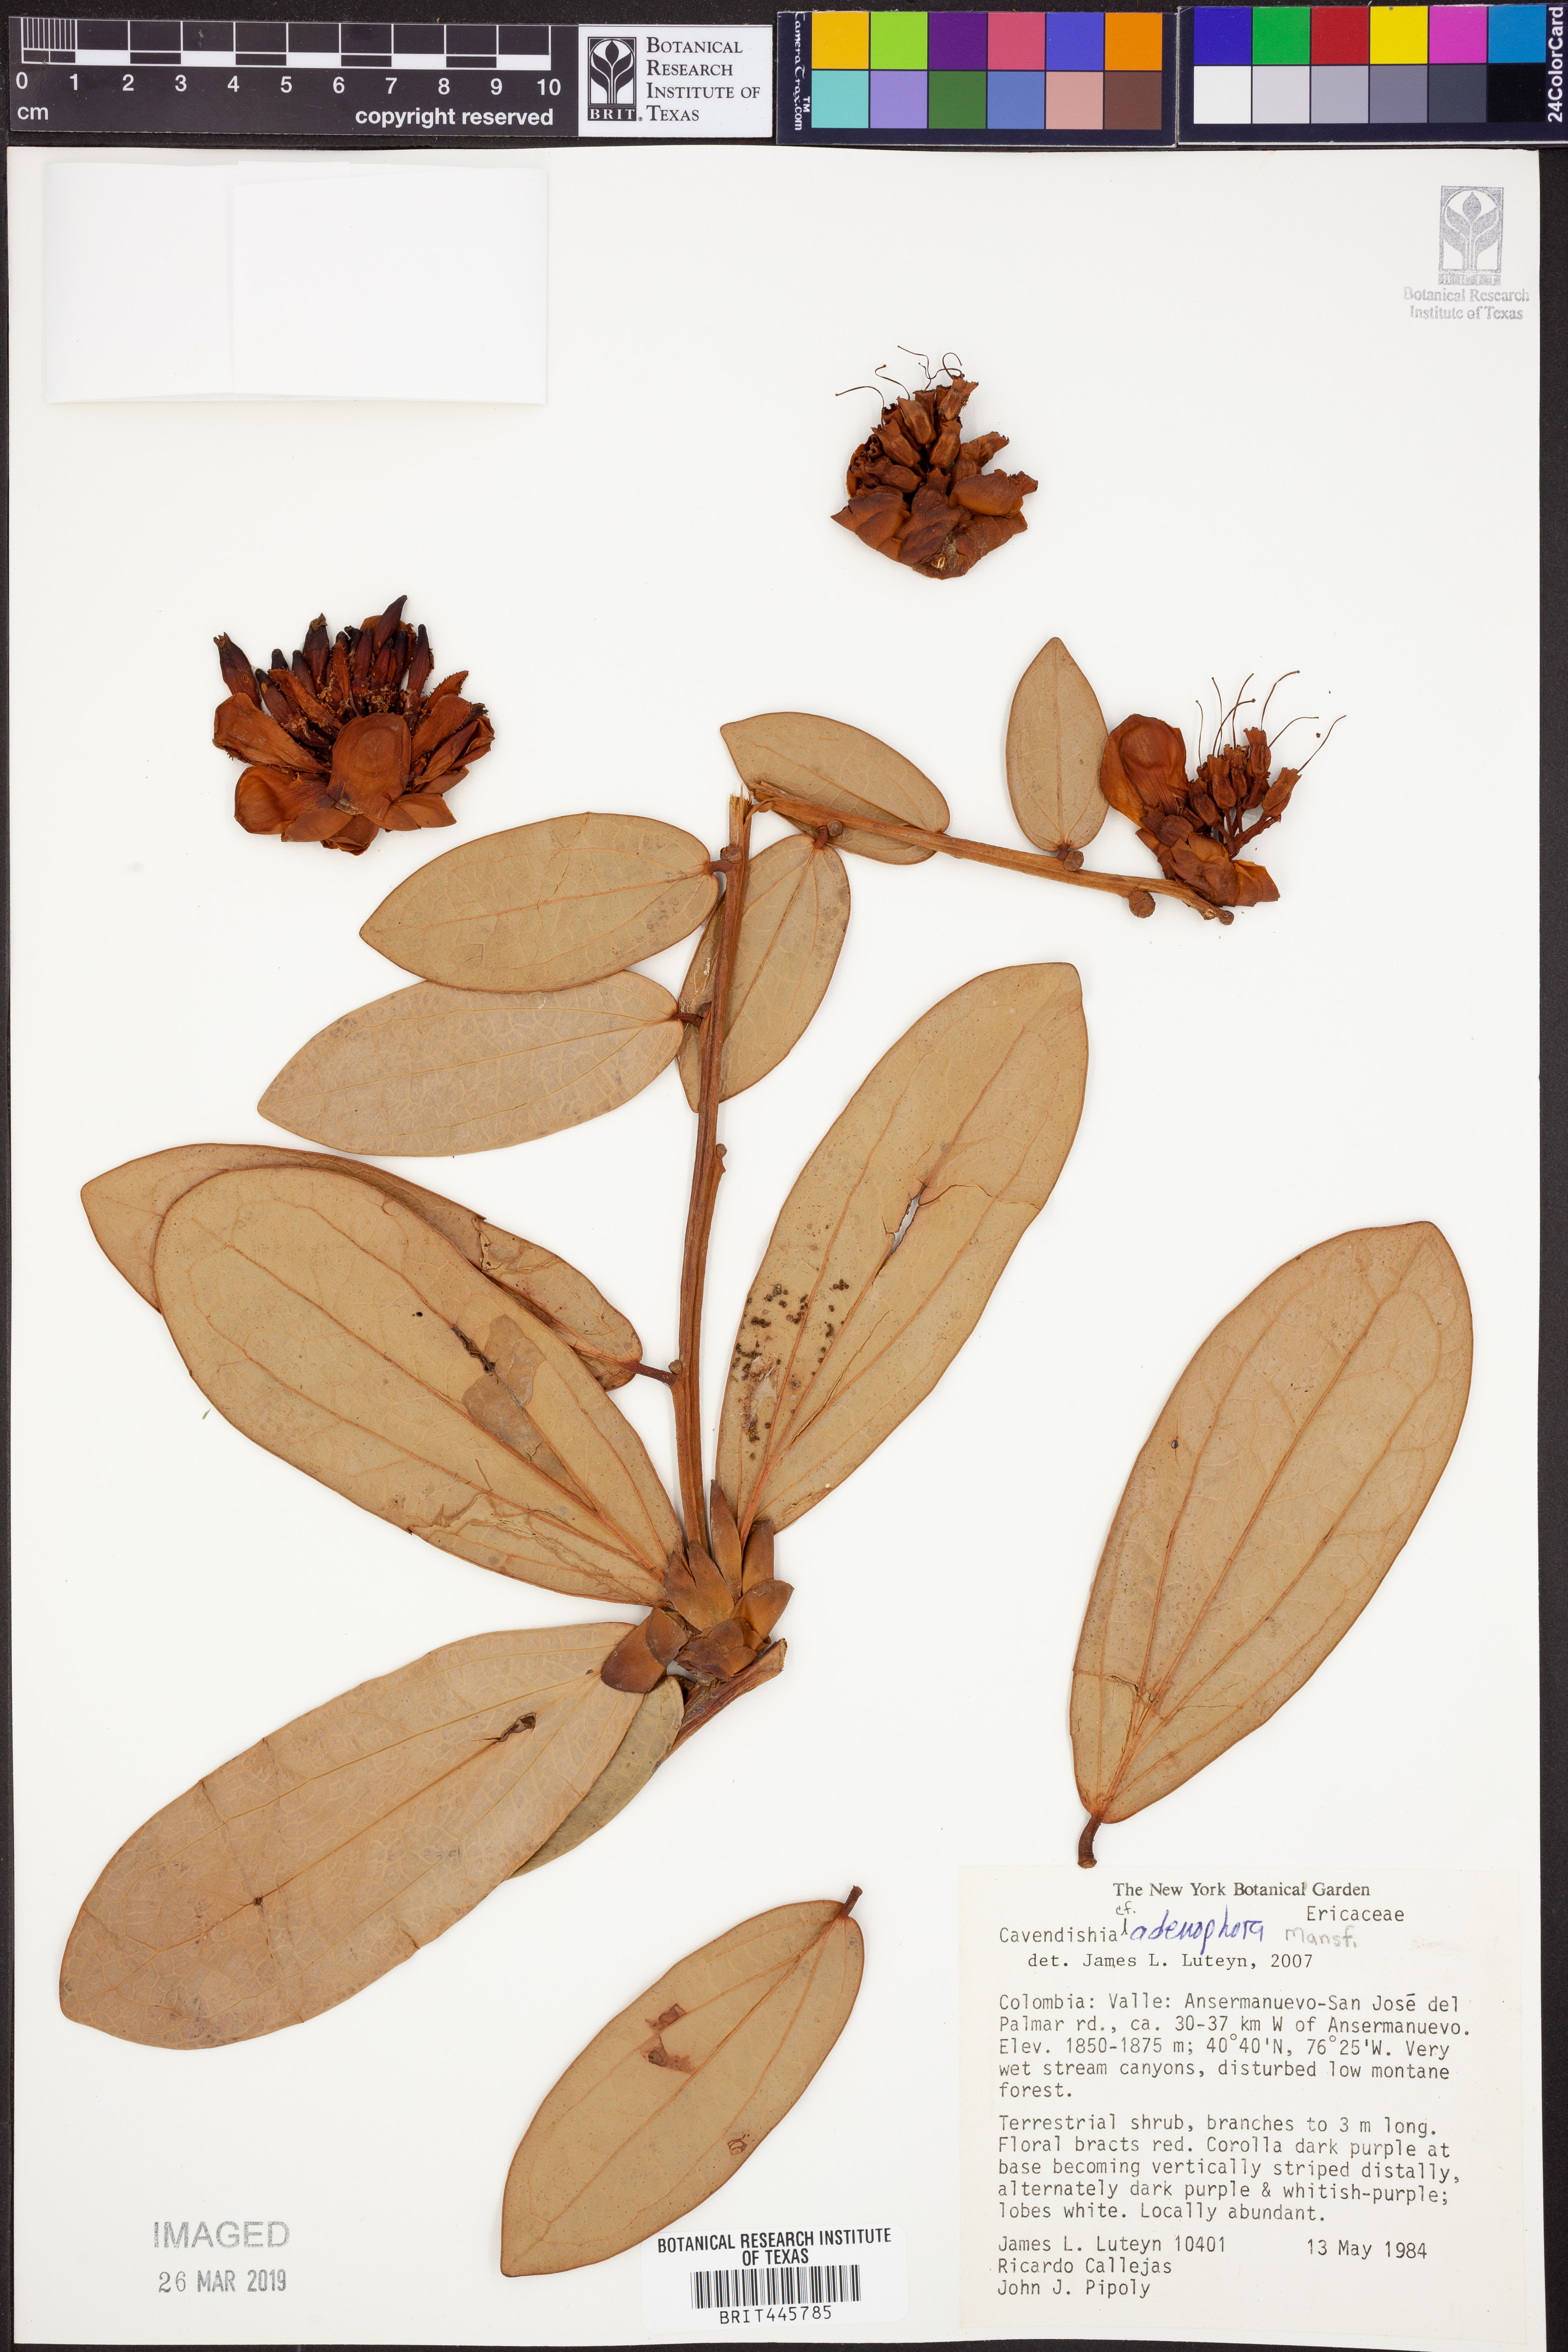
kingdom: Plantae
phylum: Tracheophyta
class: Magnoliopsida
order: Ericales
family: Ericaceae
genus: Cavendishia
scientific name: Cavendishia adenophora
